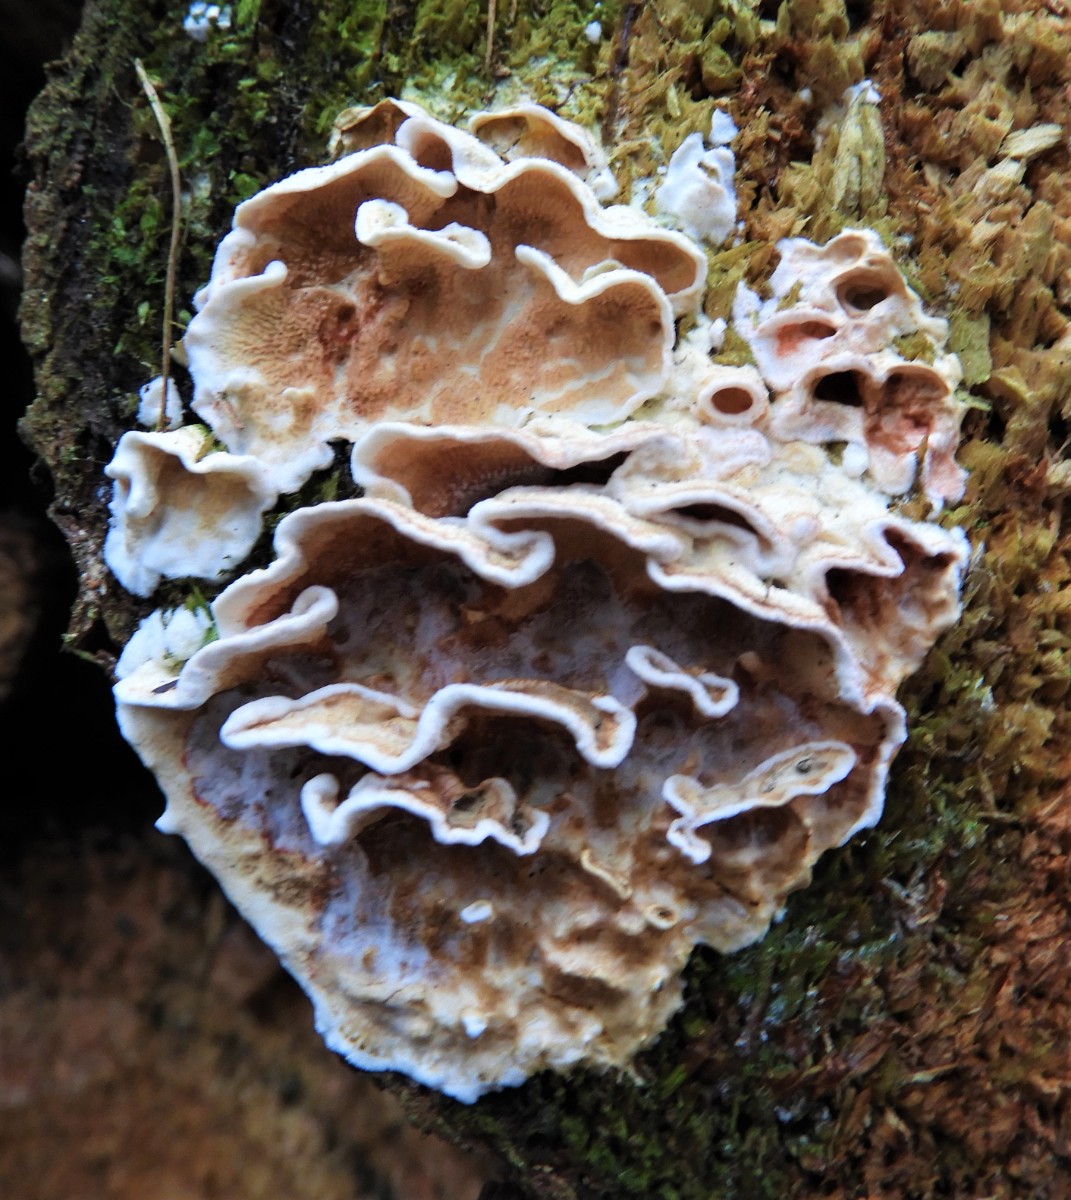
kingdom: Fungi
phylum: Basidiomycota
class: Agaricomycetes
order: Polyporales
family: Incrustoporiaceae
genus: Skeletocutis
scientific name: Skeletocutis amorpha
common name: orange krystalporesvamp
